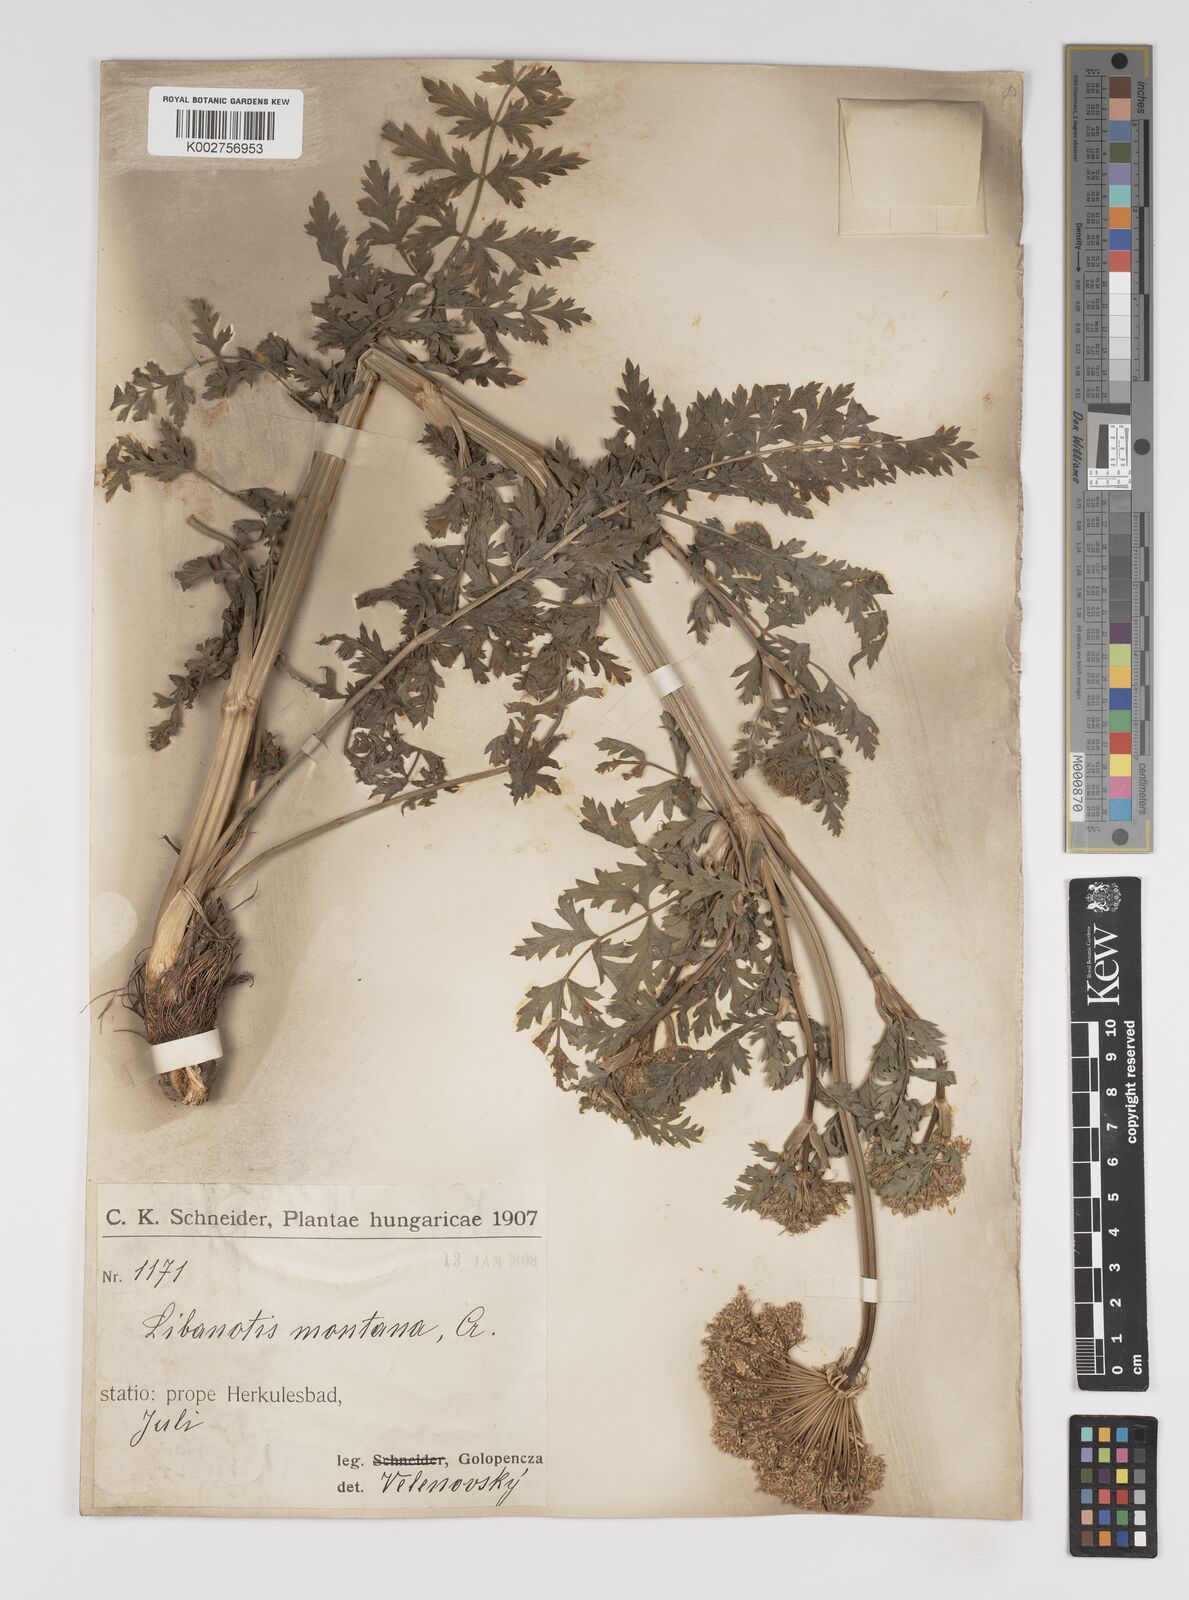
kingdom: Plantae
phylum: Tracheophyta
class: Magnoliopsida
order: Apiales
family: Apiaceae
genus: Seseli
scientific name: Seseli libanotis
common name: Mooncarrot
